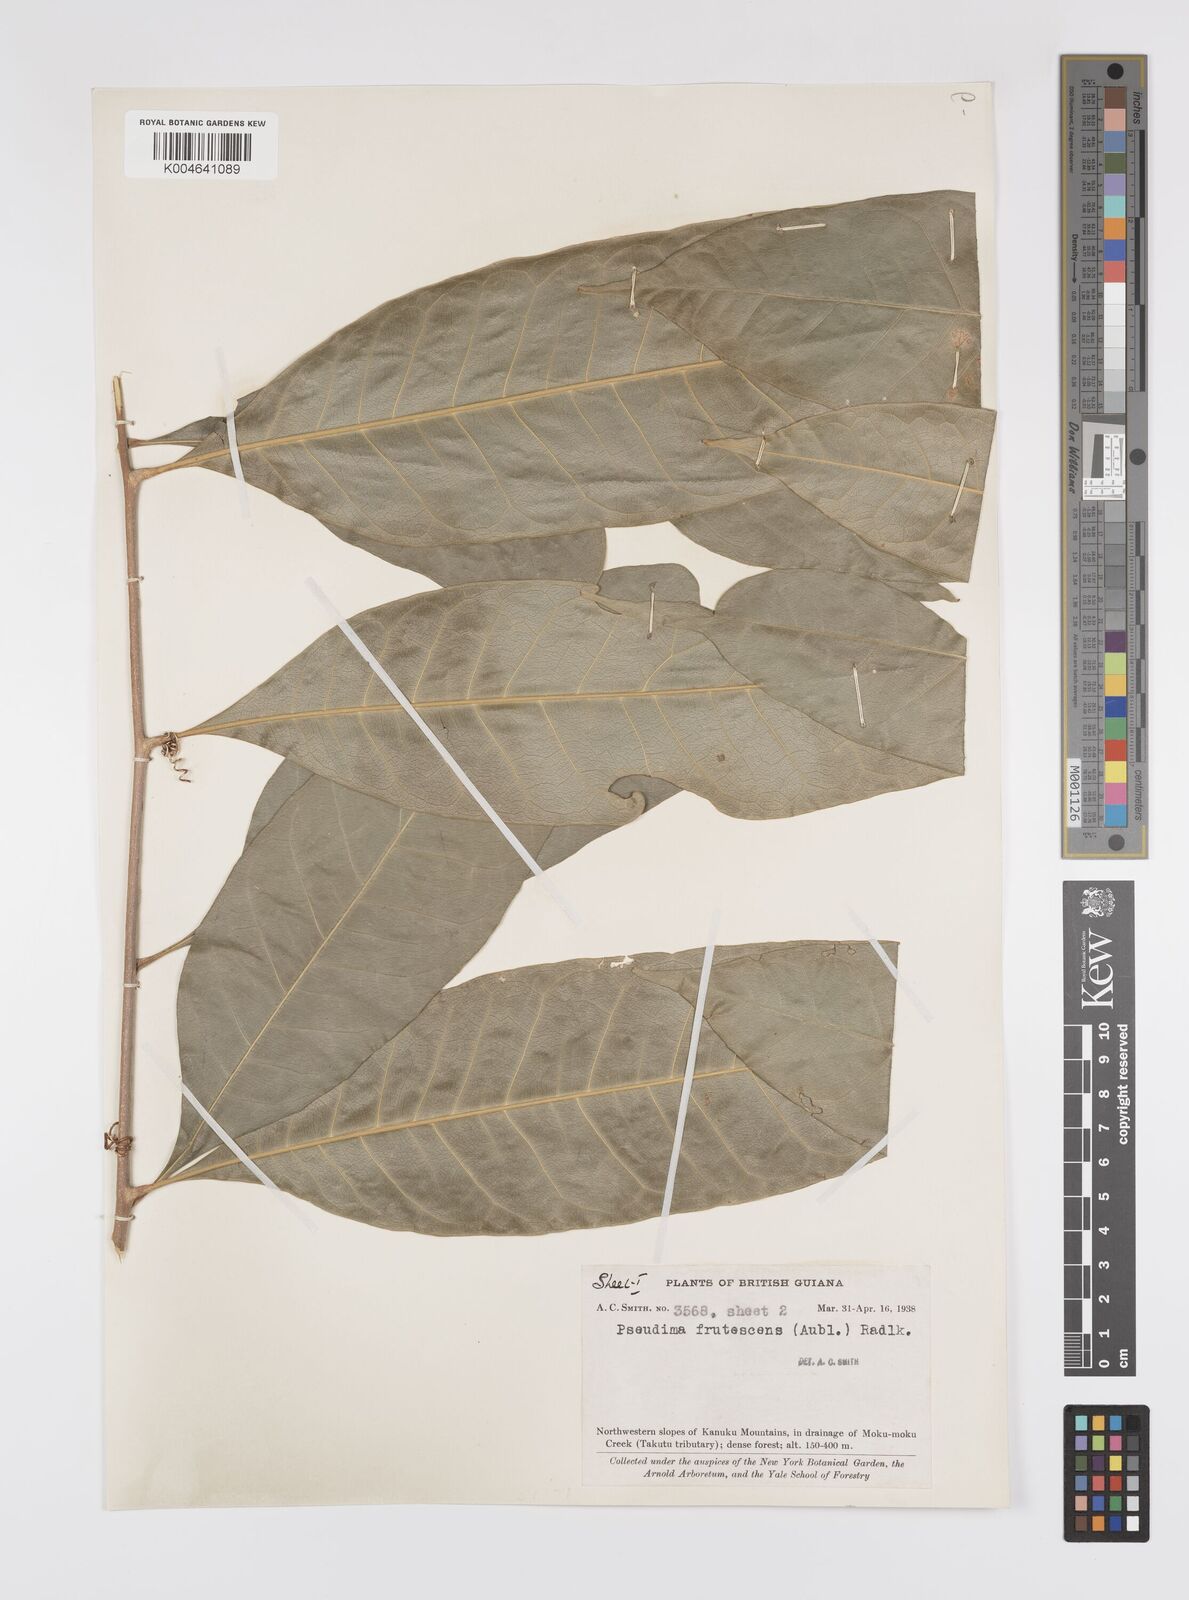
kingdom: Plantae
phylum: Tracheophyta
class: Magnoliopsida
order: Sapindales
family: Sapindaceae
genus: Pseudima
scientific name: Pseudima frutescens
